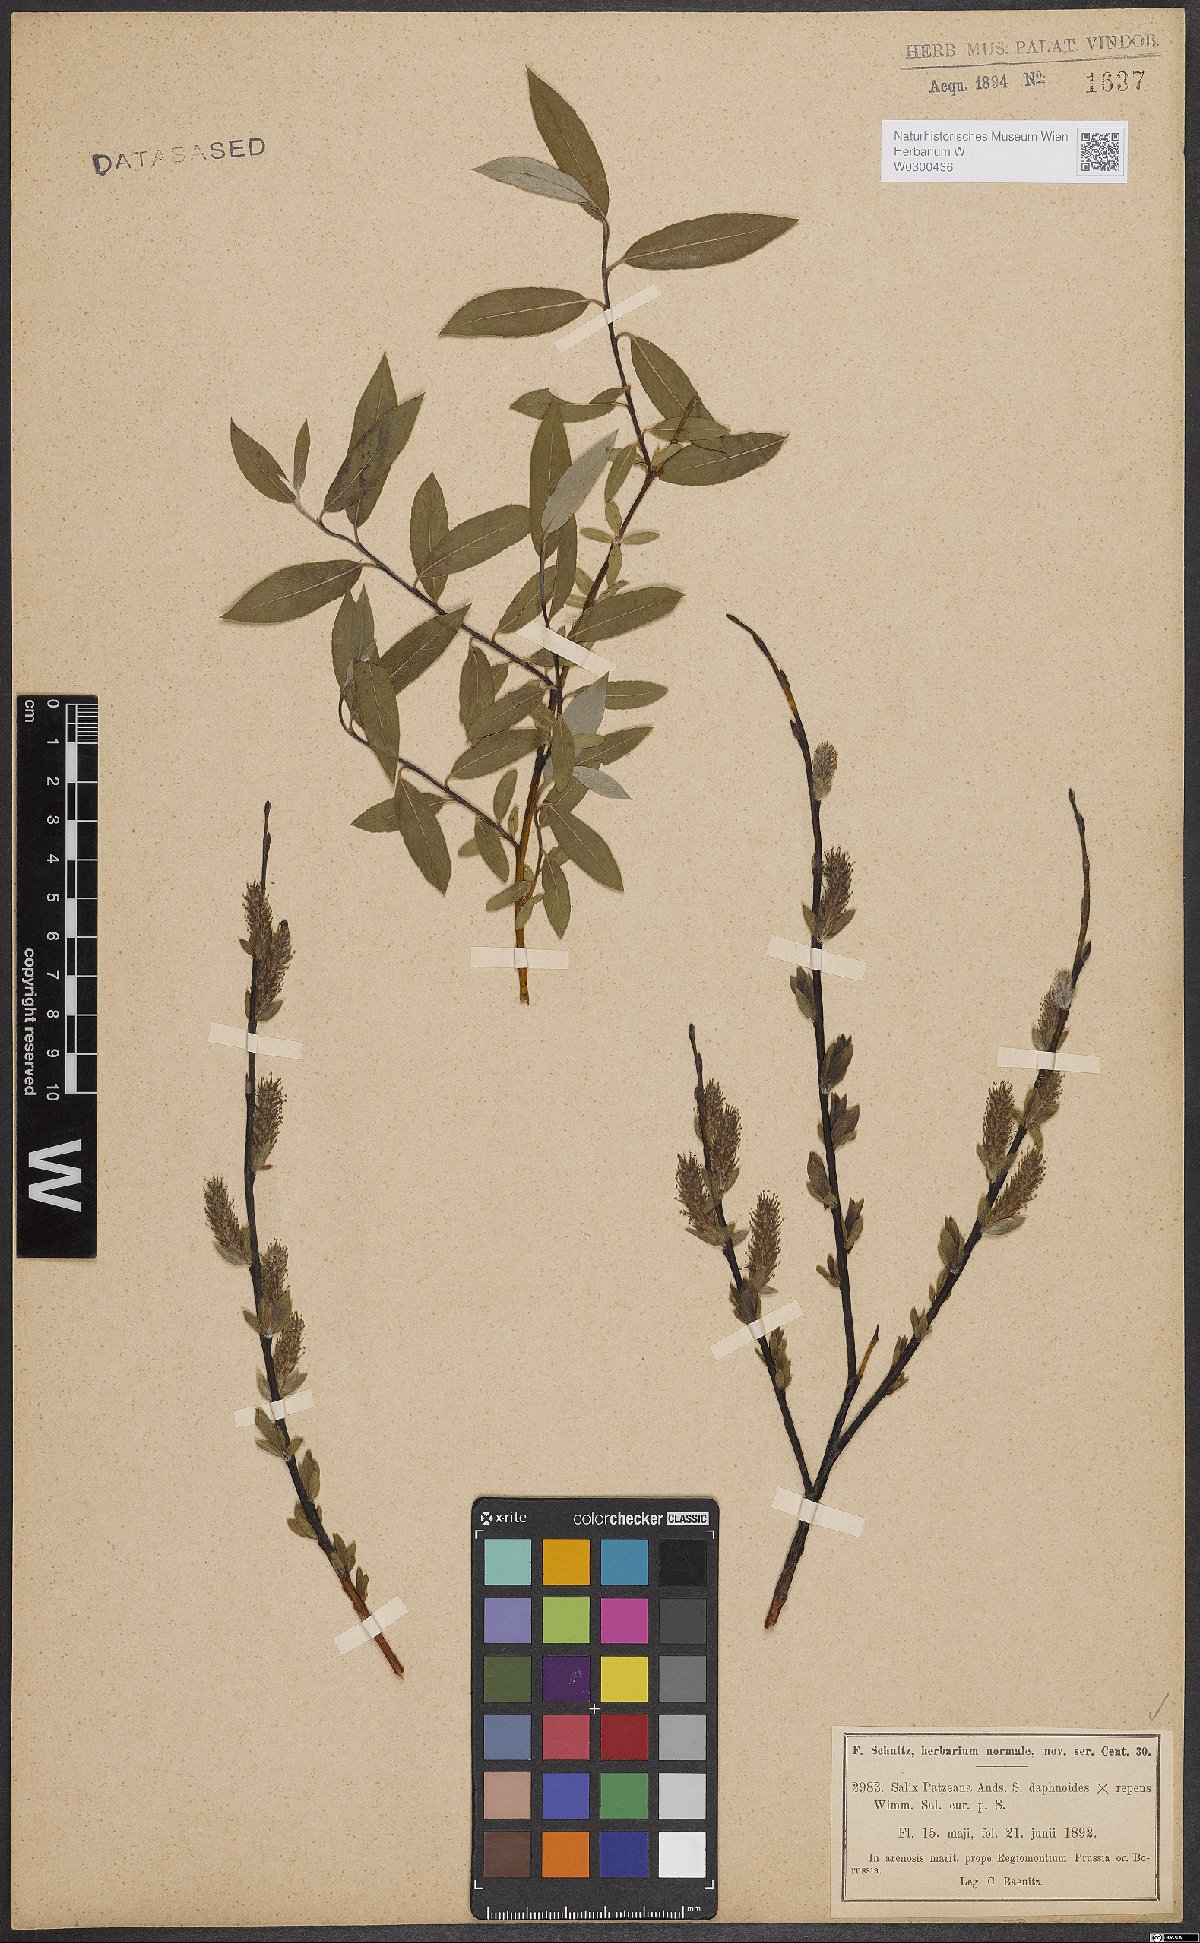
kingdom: Plantae
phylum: Tracheophyta
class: Magnoliopsida
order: Malpighiales
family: Salicaceae
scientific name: Salicaceae
